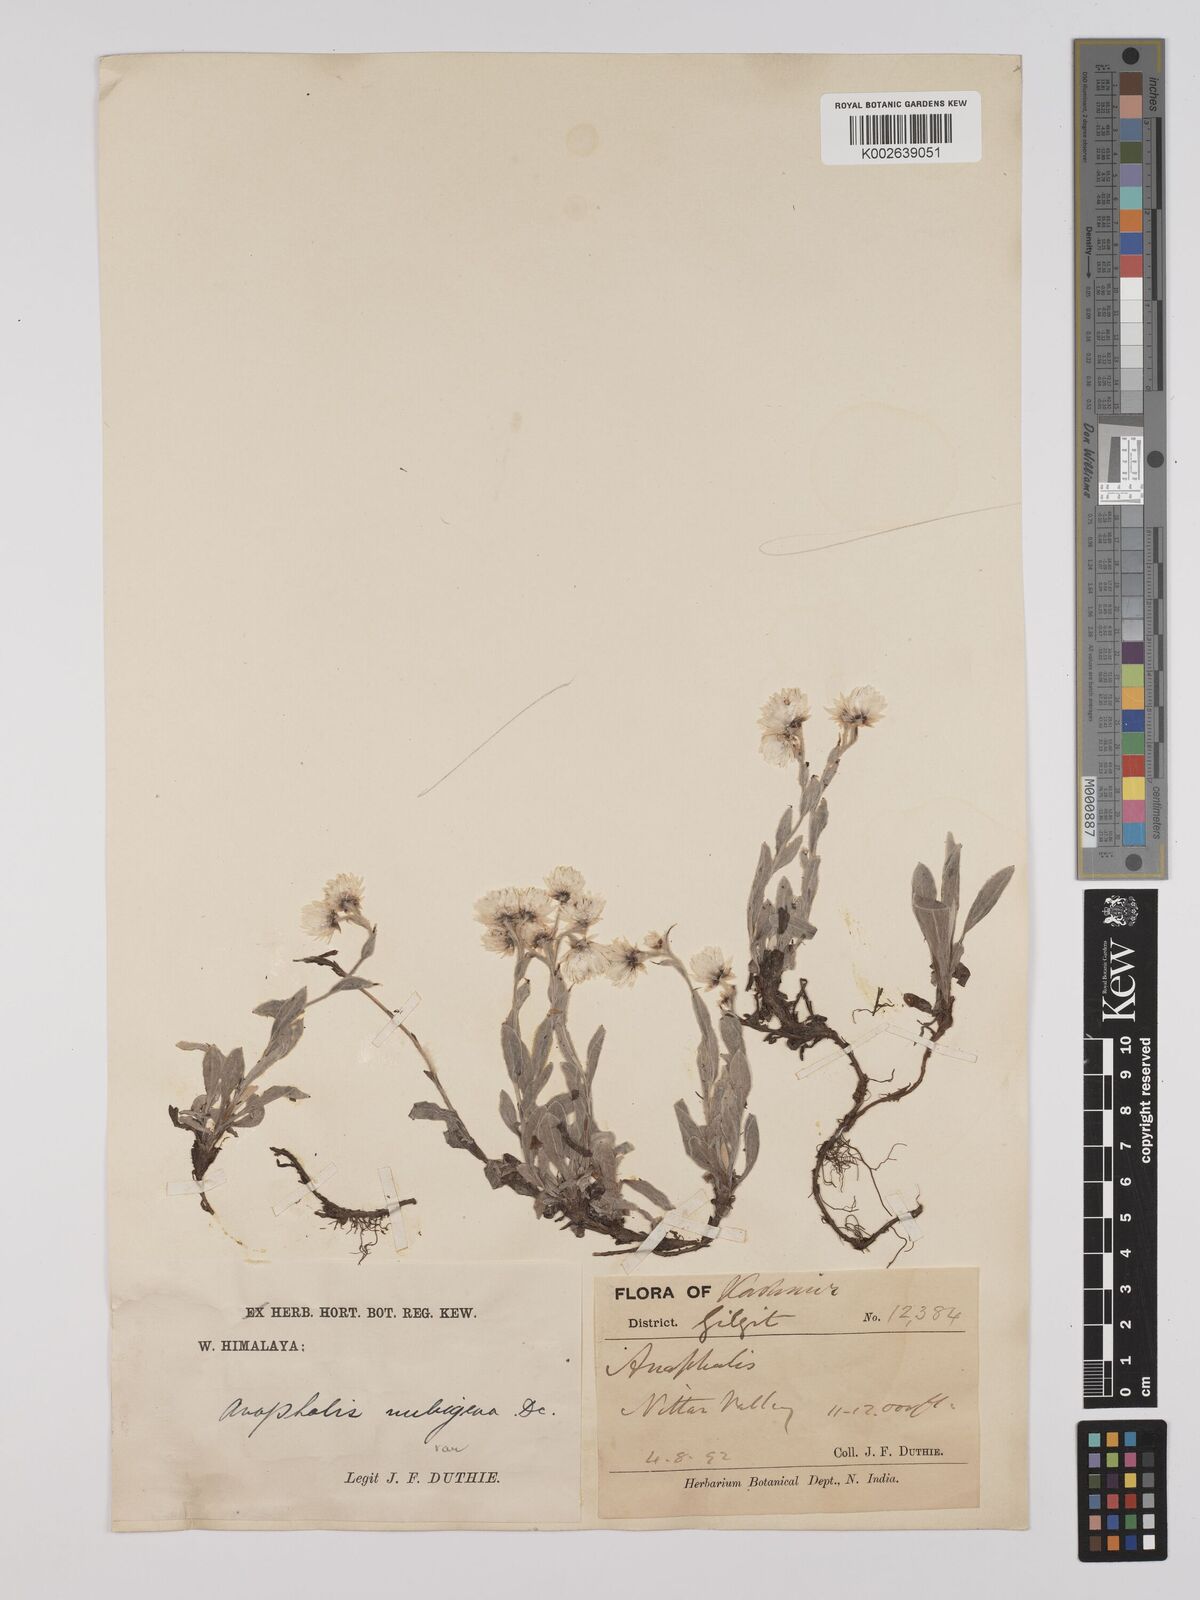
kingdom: Plantae
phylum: Tracheophyta
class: Magnoliopsida
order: Asterales
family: Asteraceae
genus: Anaphalis
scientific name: Anaphalis nepalensis
